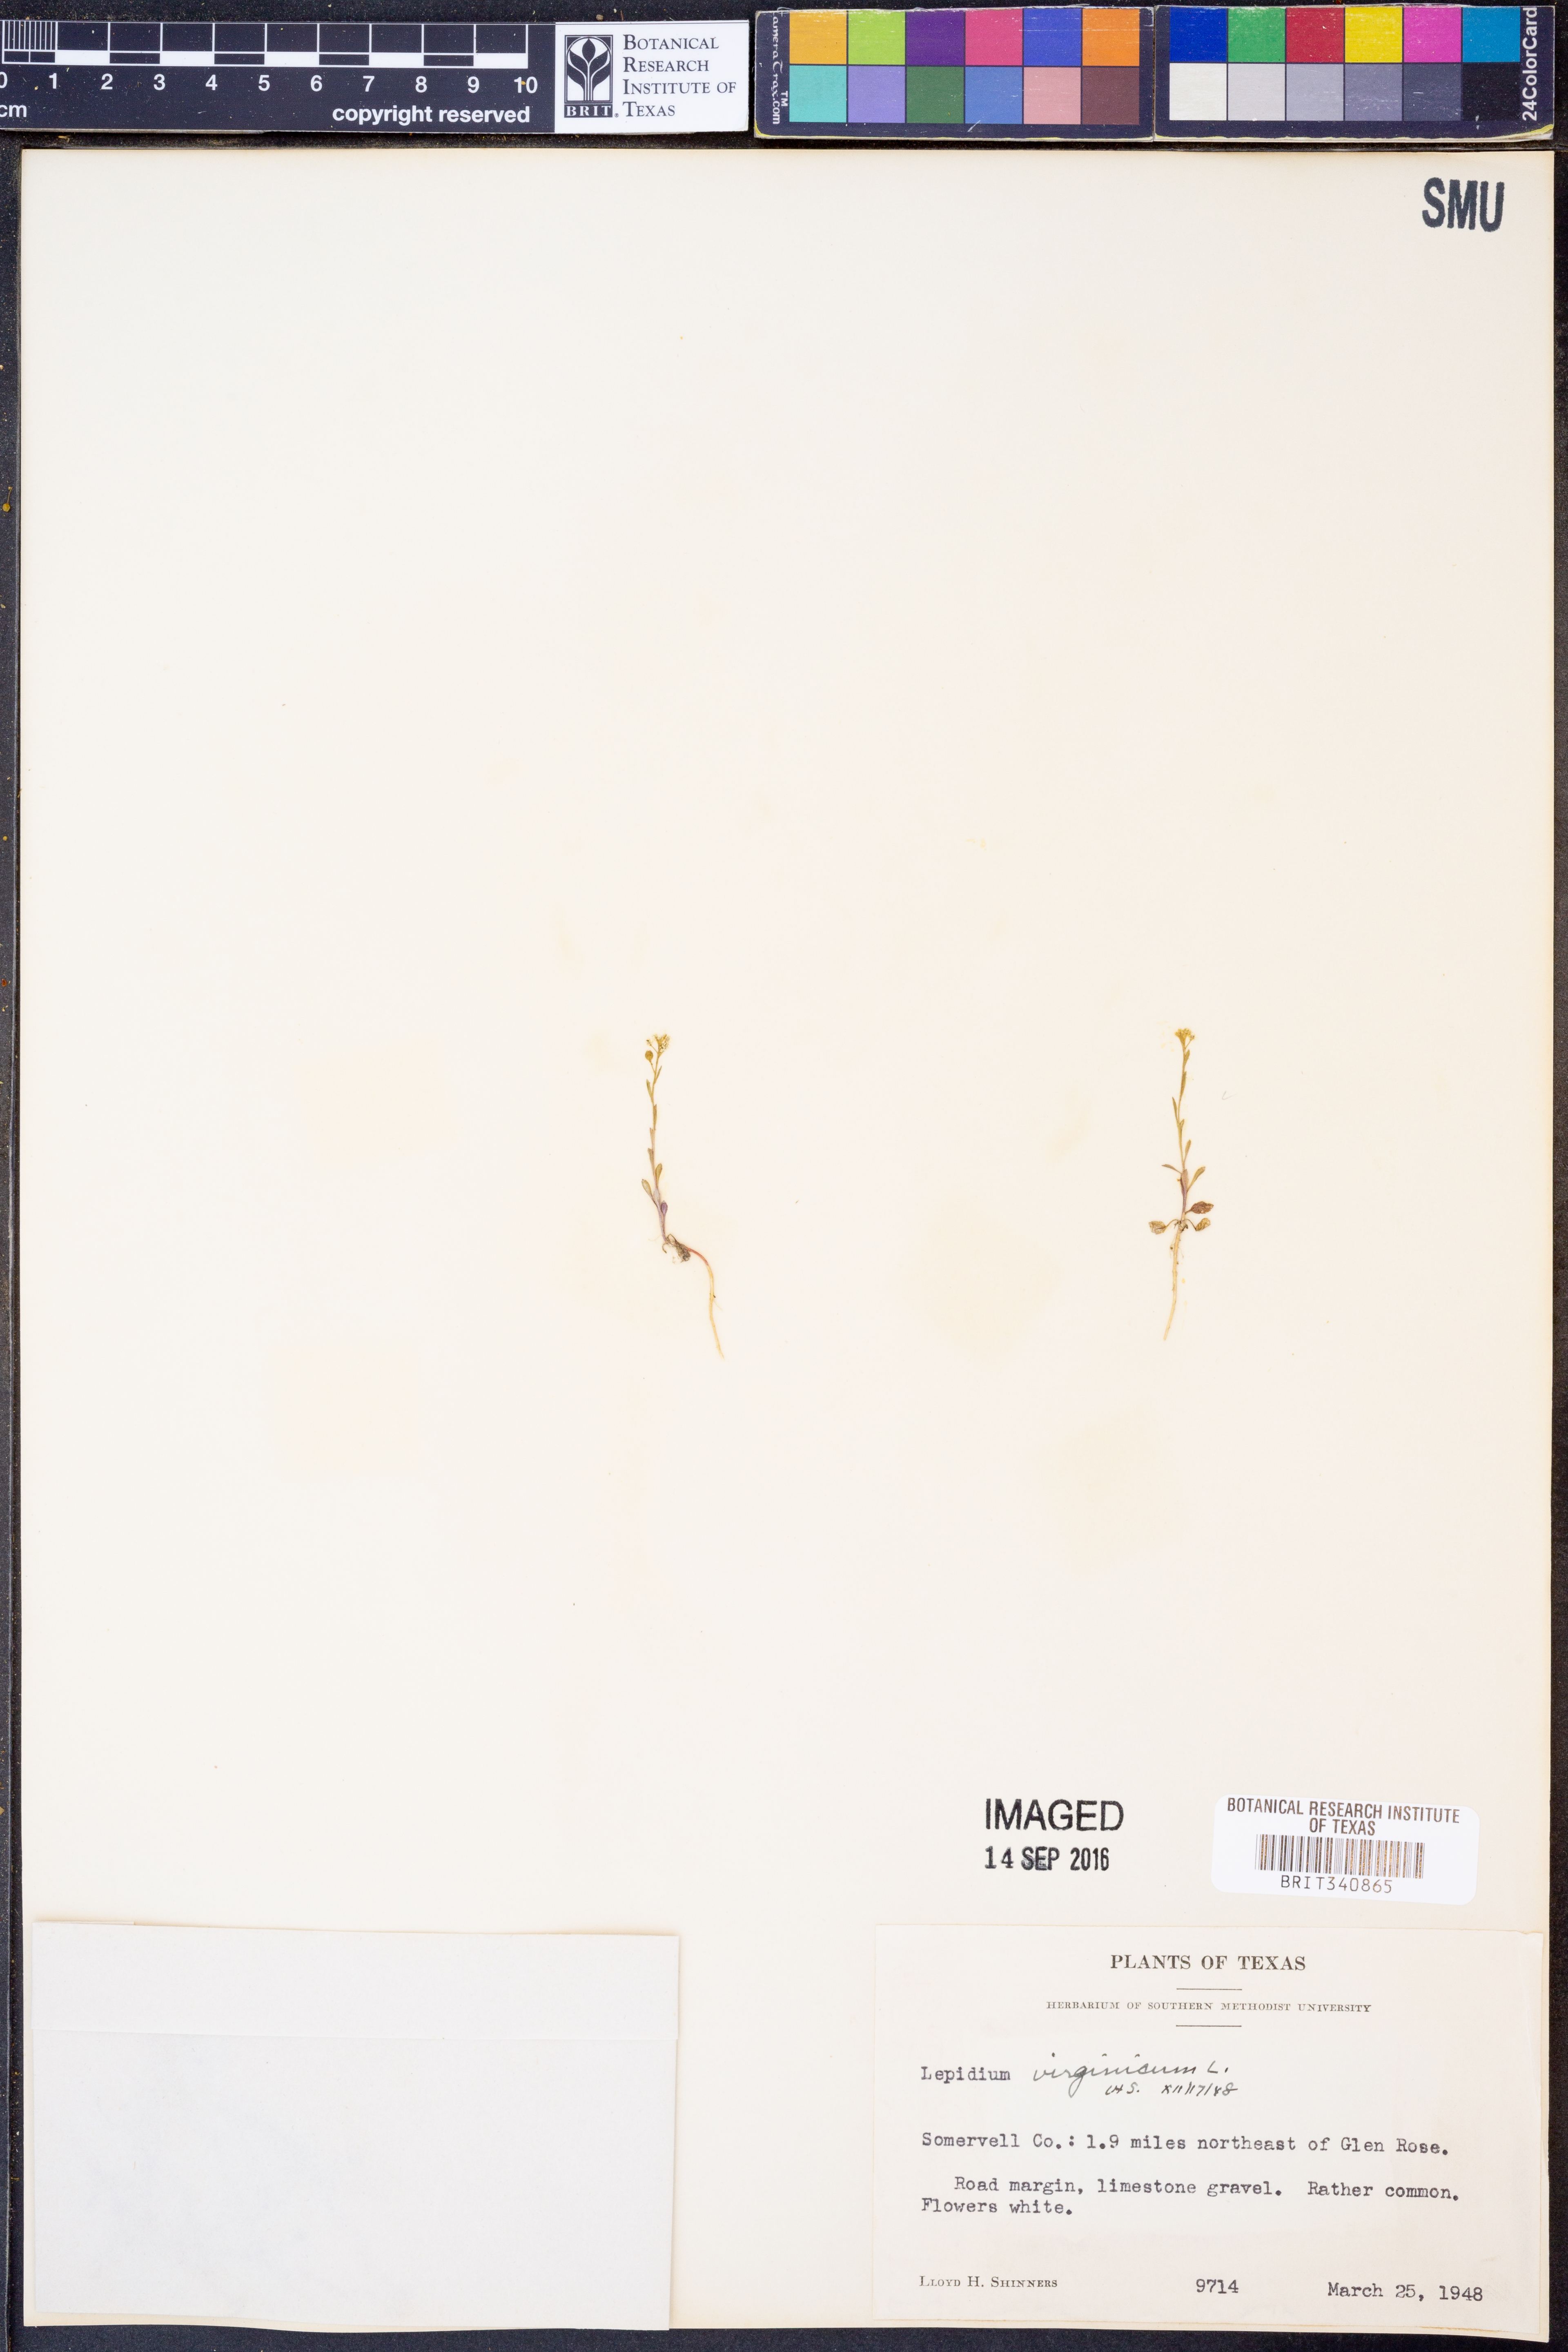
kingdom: Plantae
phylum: Tracheophyta
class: Magnoliopsida
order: Brassicales
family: Brassicaceae
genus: Lepidium
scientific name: Lepidium virginicum
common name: Least pepperwort
